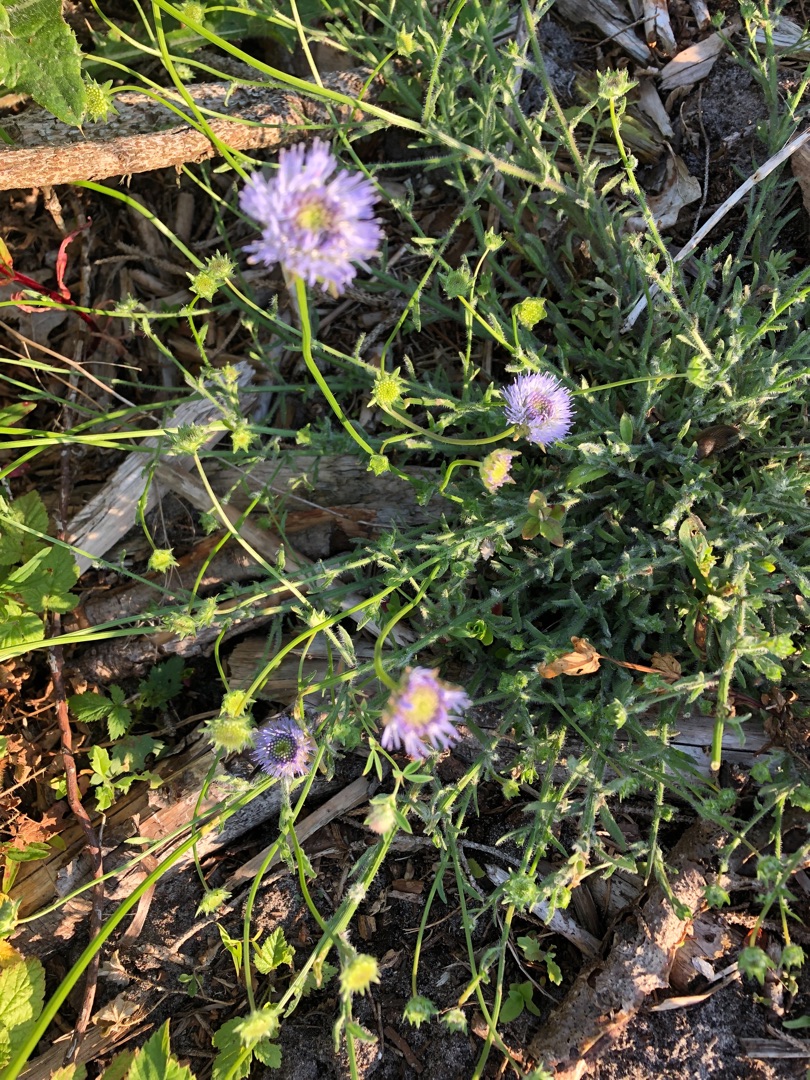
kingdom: Plantae
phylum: Tracheophyta
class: Magnoliopsida
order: Asterales
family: Campanulaceae
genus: Jasione
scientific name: Jasione montana
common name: Blåmunke
